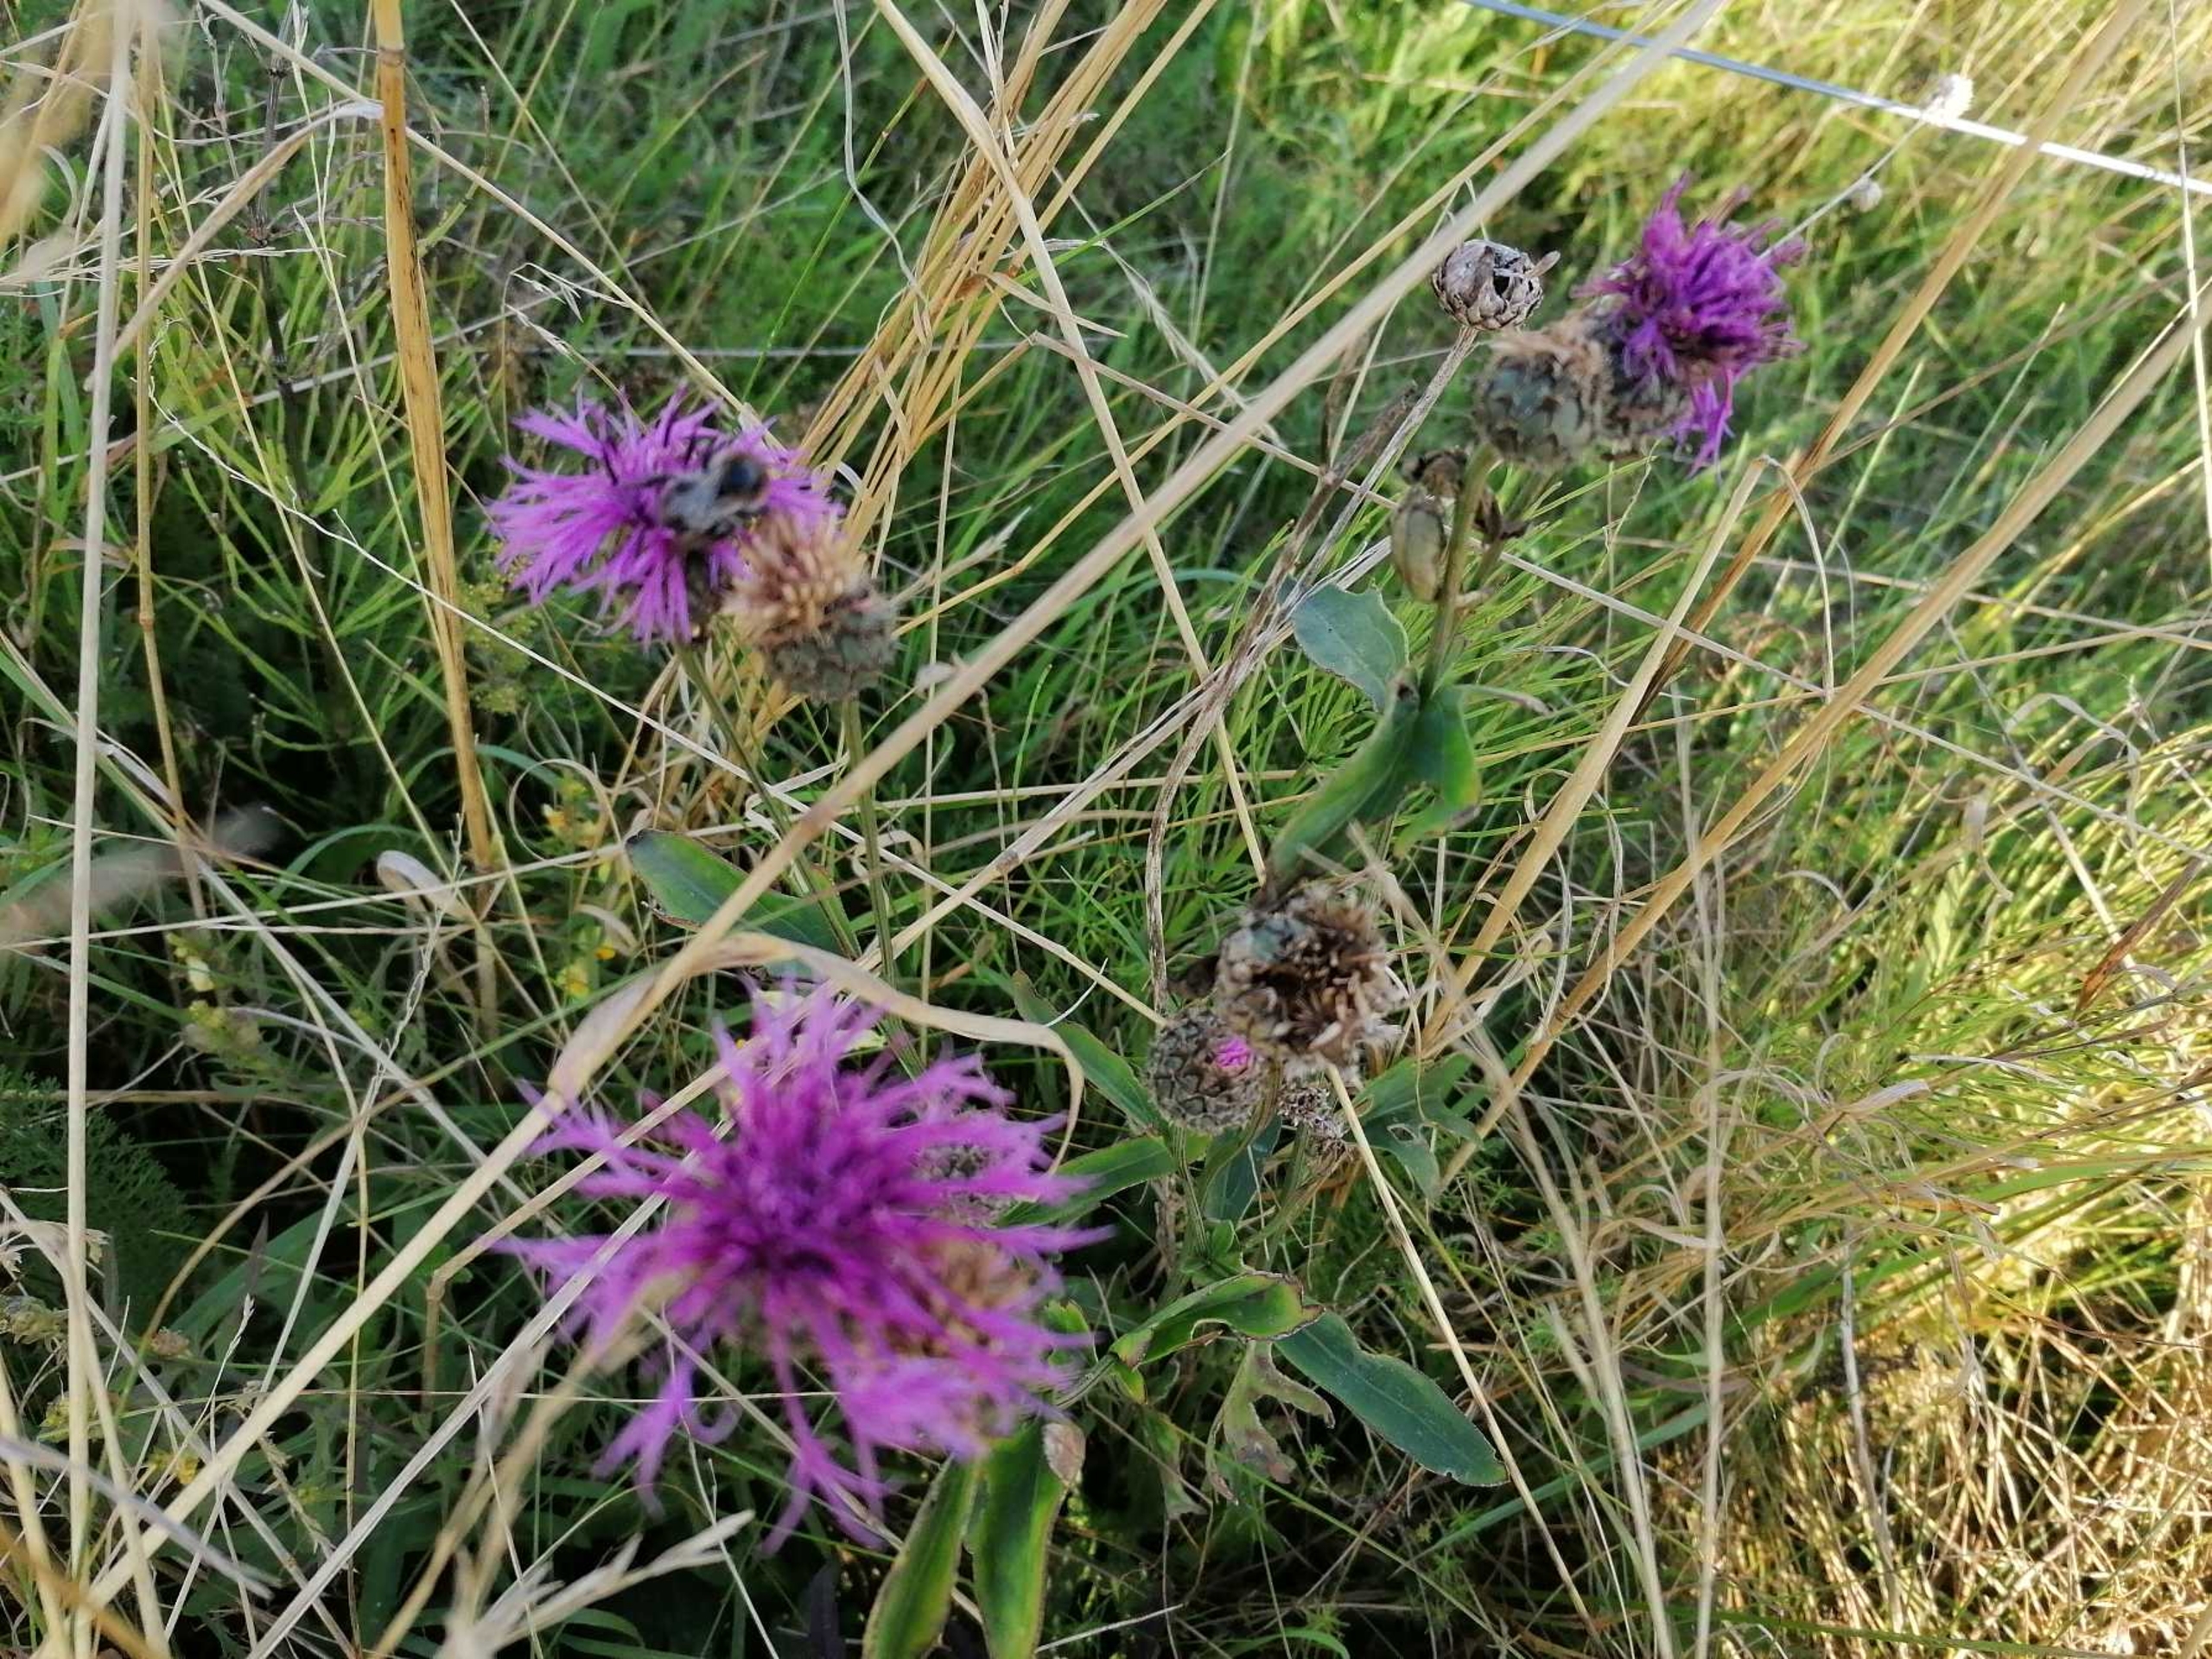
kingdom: Plantae
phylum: Tracheophyta
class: Magnoliopsida
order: Asterales
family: Asteraceae
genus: Centaurea
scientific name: Centaurea
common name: Knopurtslægten
